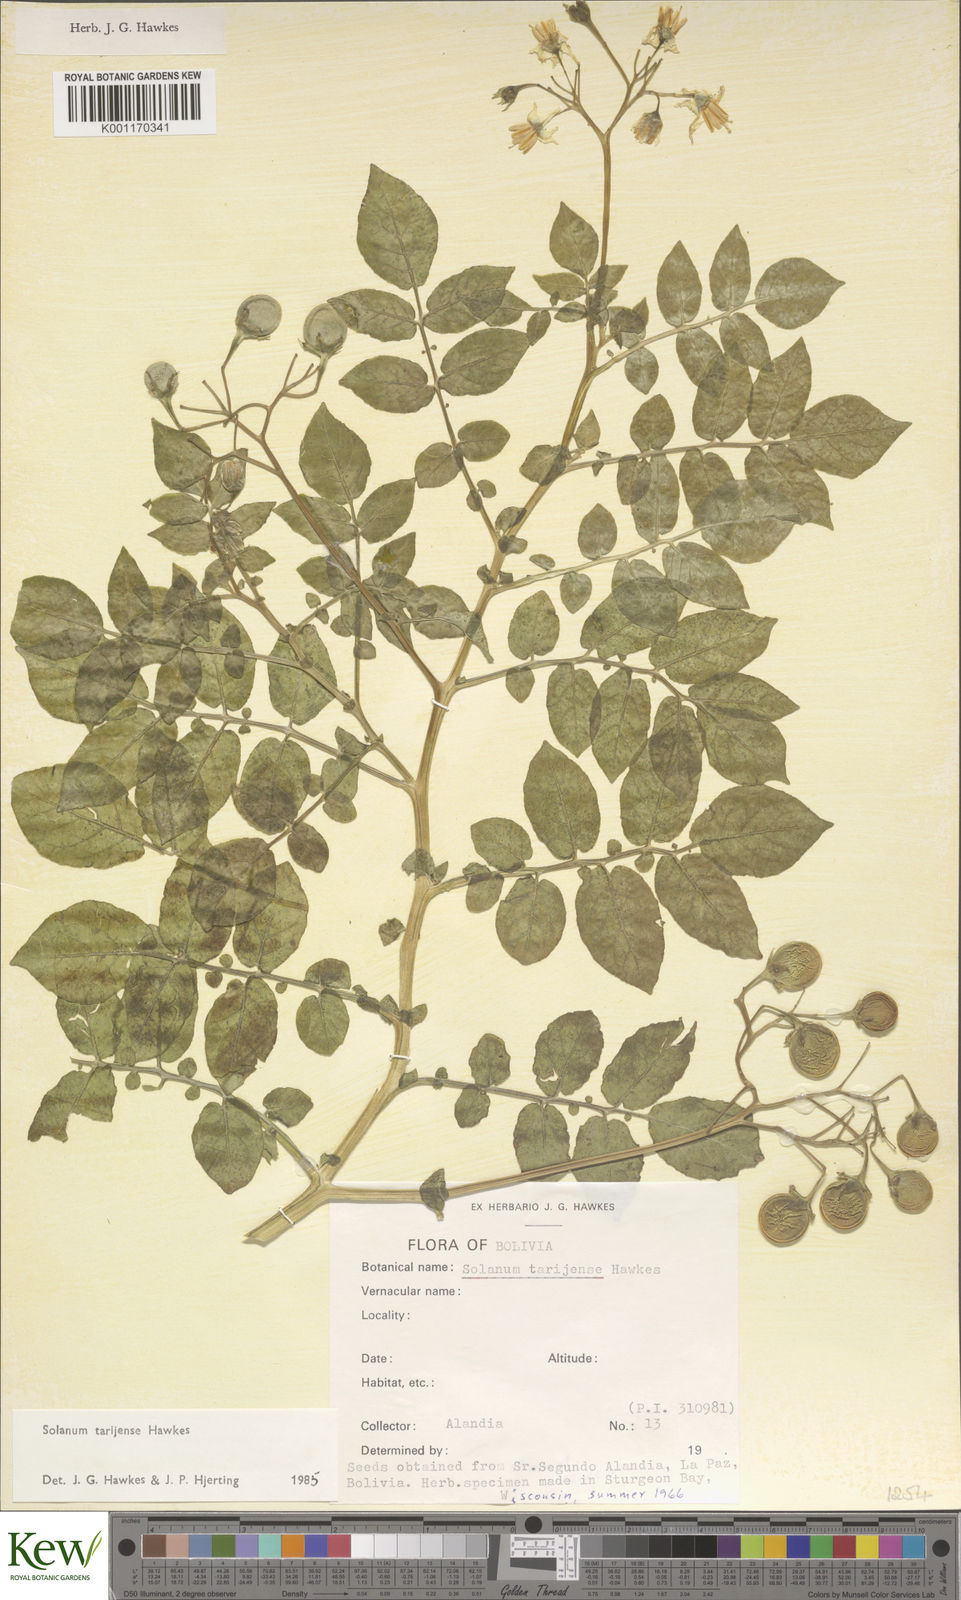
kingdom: Plantae
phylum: Tracheophyta
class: Magnoliopsida
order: Solanales
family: Solanaceae
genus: Solanum
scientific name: Solanum tarijense
